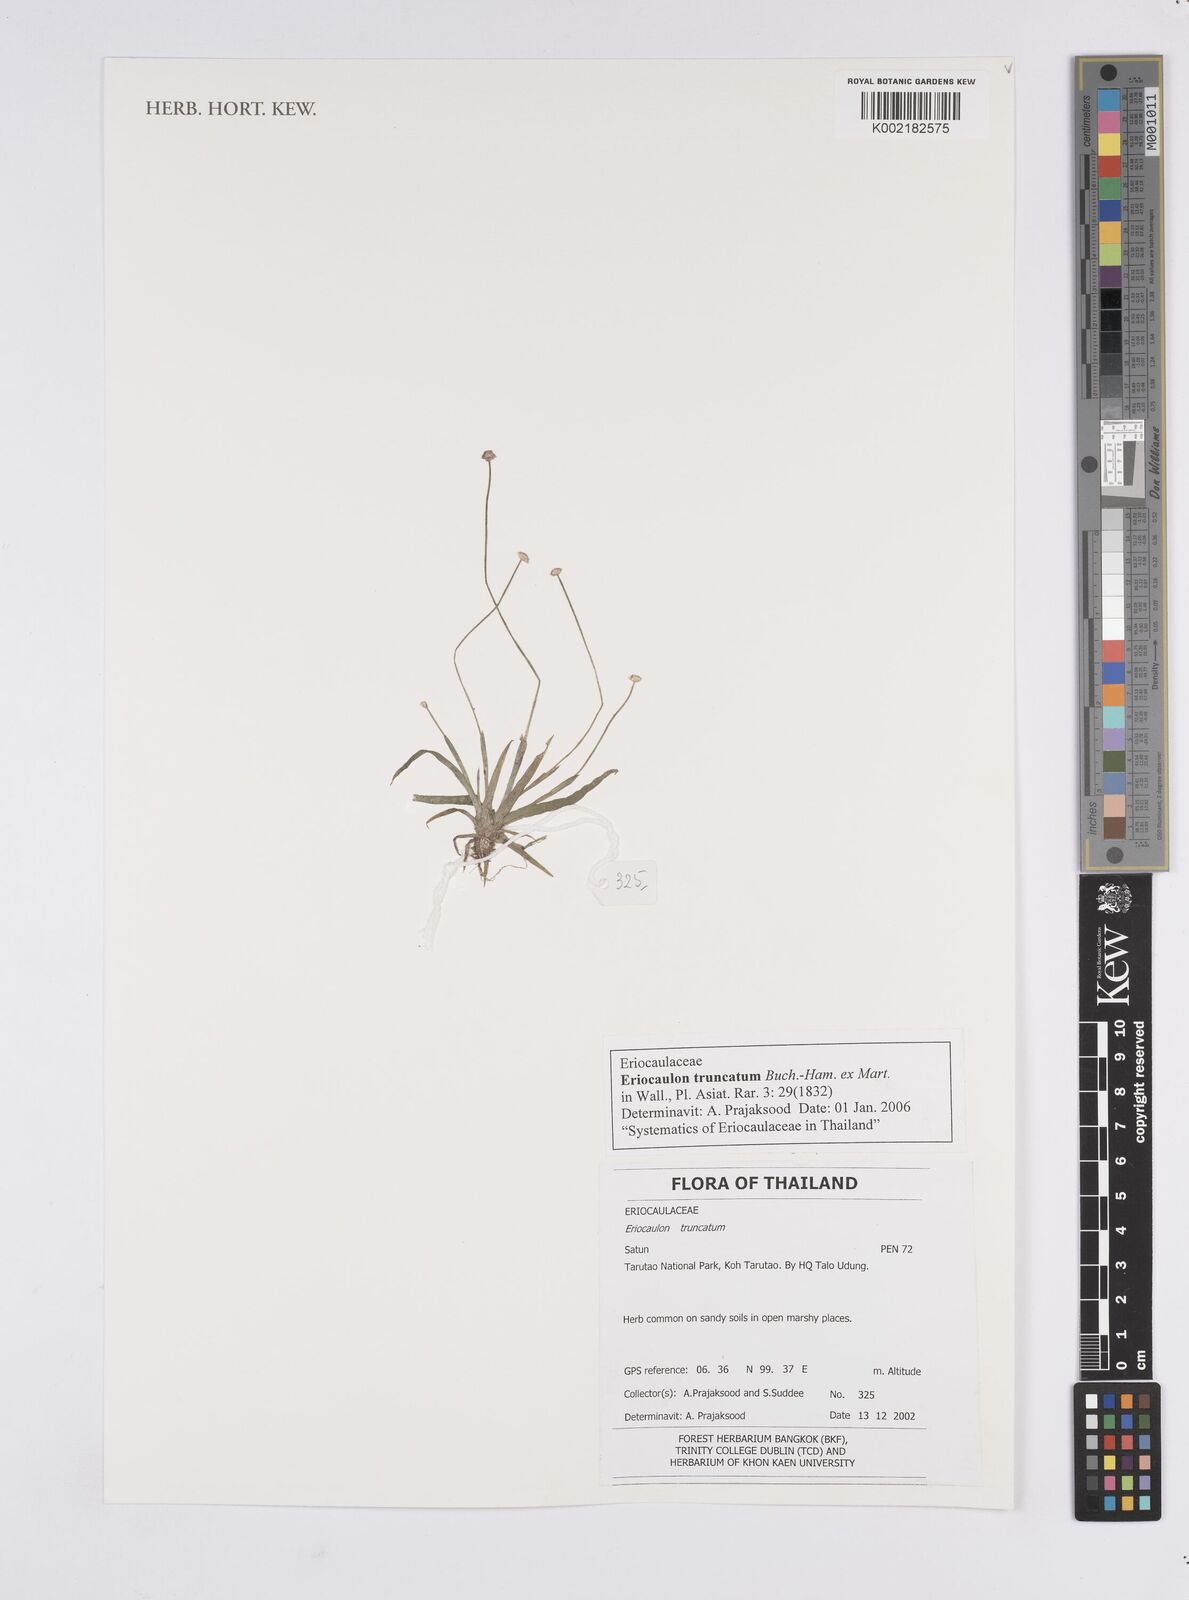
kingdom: Plantae
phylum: Tracheophyta
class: Liliopsida
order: Poales
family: Eriocaulaceae
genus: Eriocaulon
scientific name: Eriocaulon truncatum
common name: Short pipe-wort
